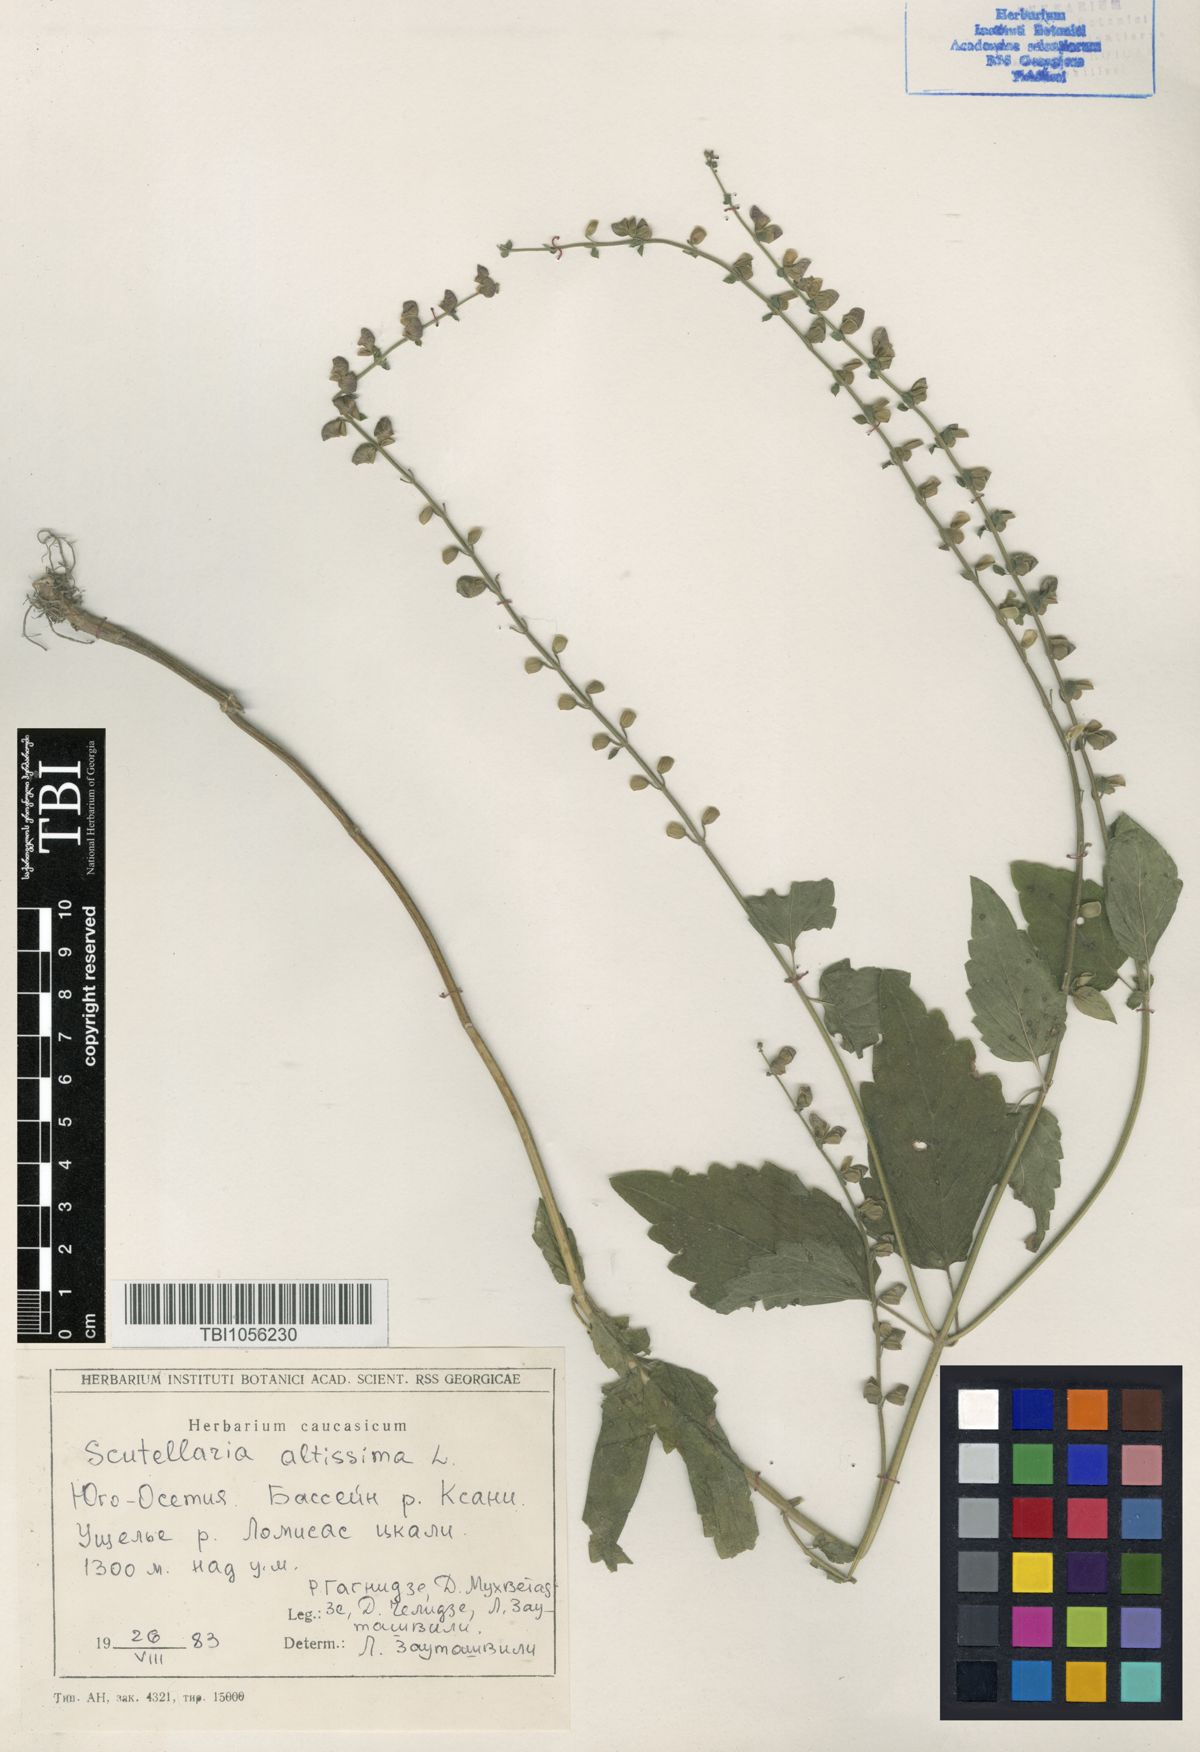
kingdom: Plantae
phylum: Tracheophyta
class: Magnoliopsida
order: Lamiales
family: Lamiaceae
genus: Scutellaria
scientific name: Scutellaria altissima
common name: Somerset skullcap
